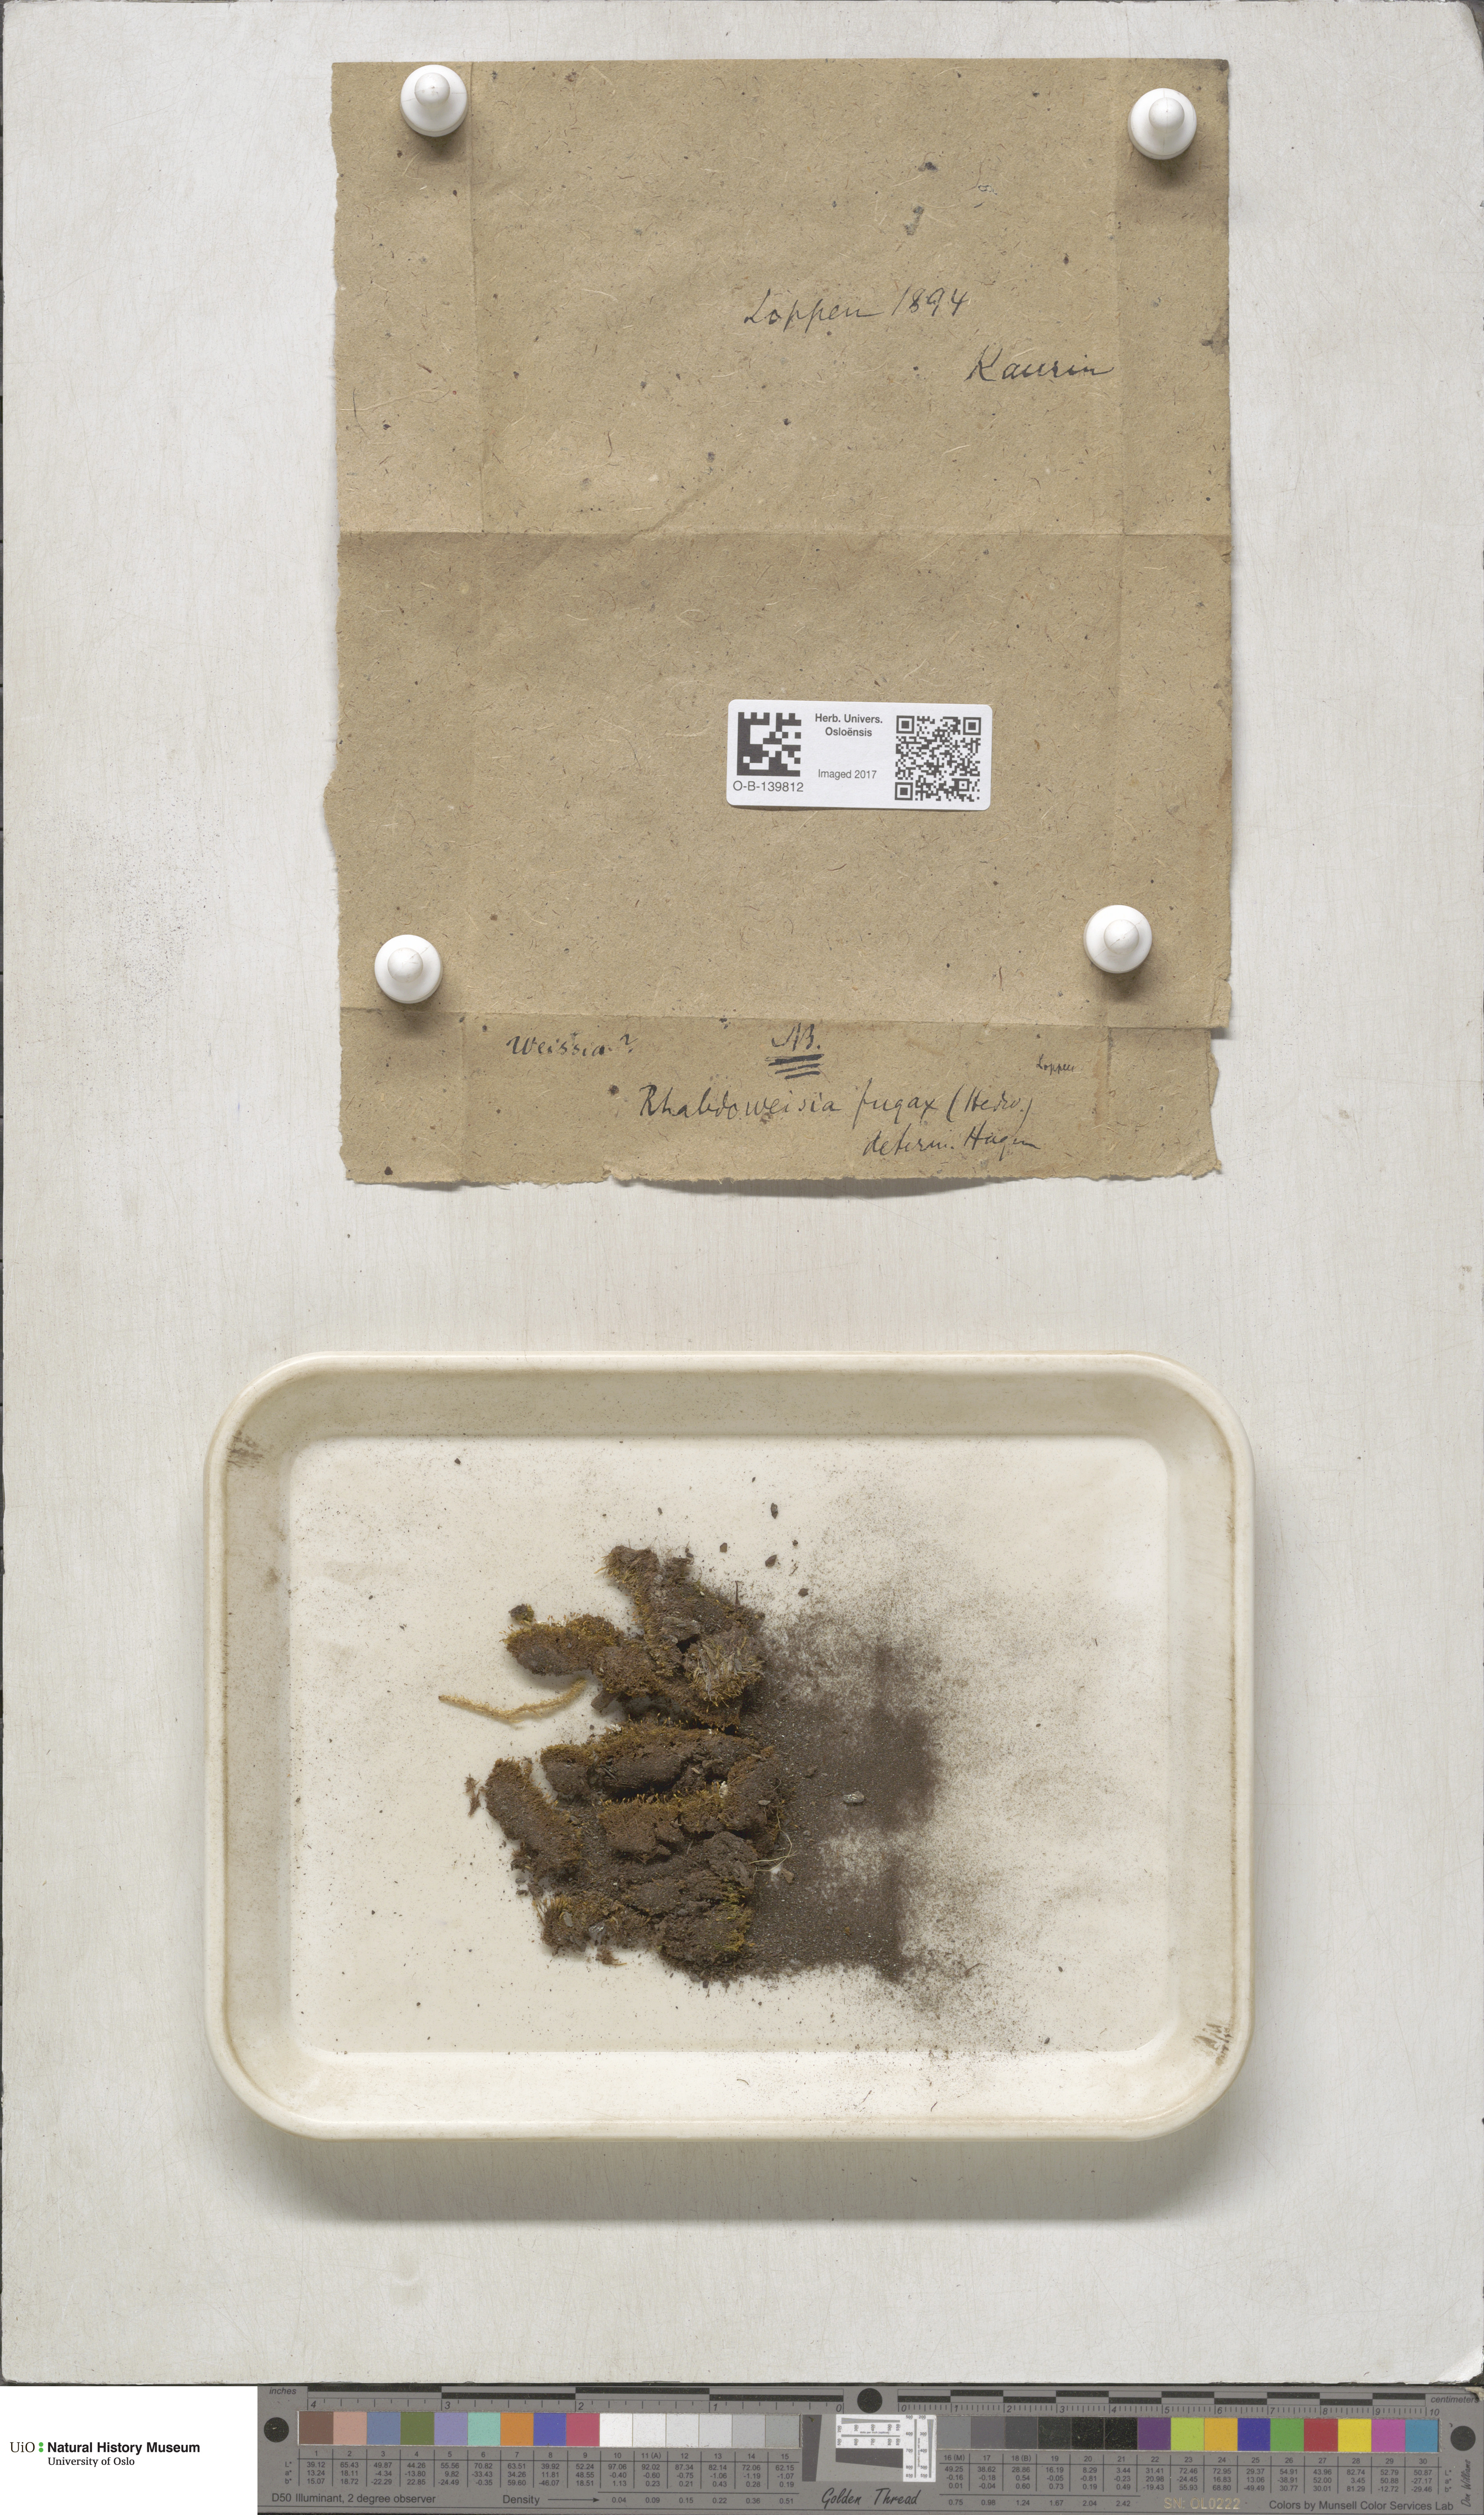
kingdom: Plantae
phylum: Bryophyta
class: Bryopsida
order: Dicranales
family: Rhabdoweisiaceae
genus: Rhabdoweisia
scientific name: Rhabdoweisia fugax
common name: Dwarf streak-moss
